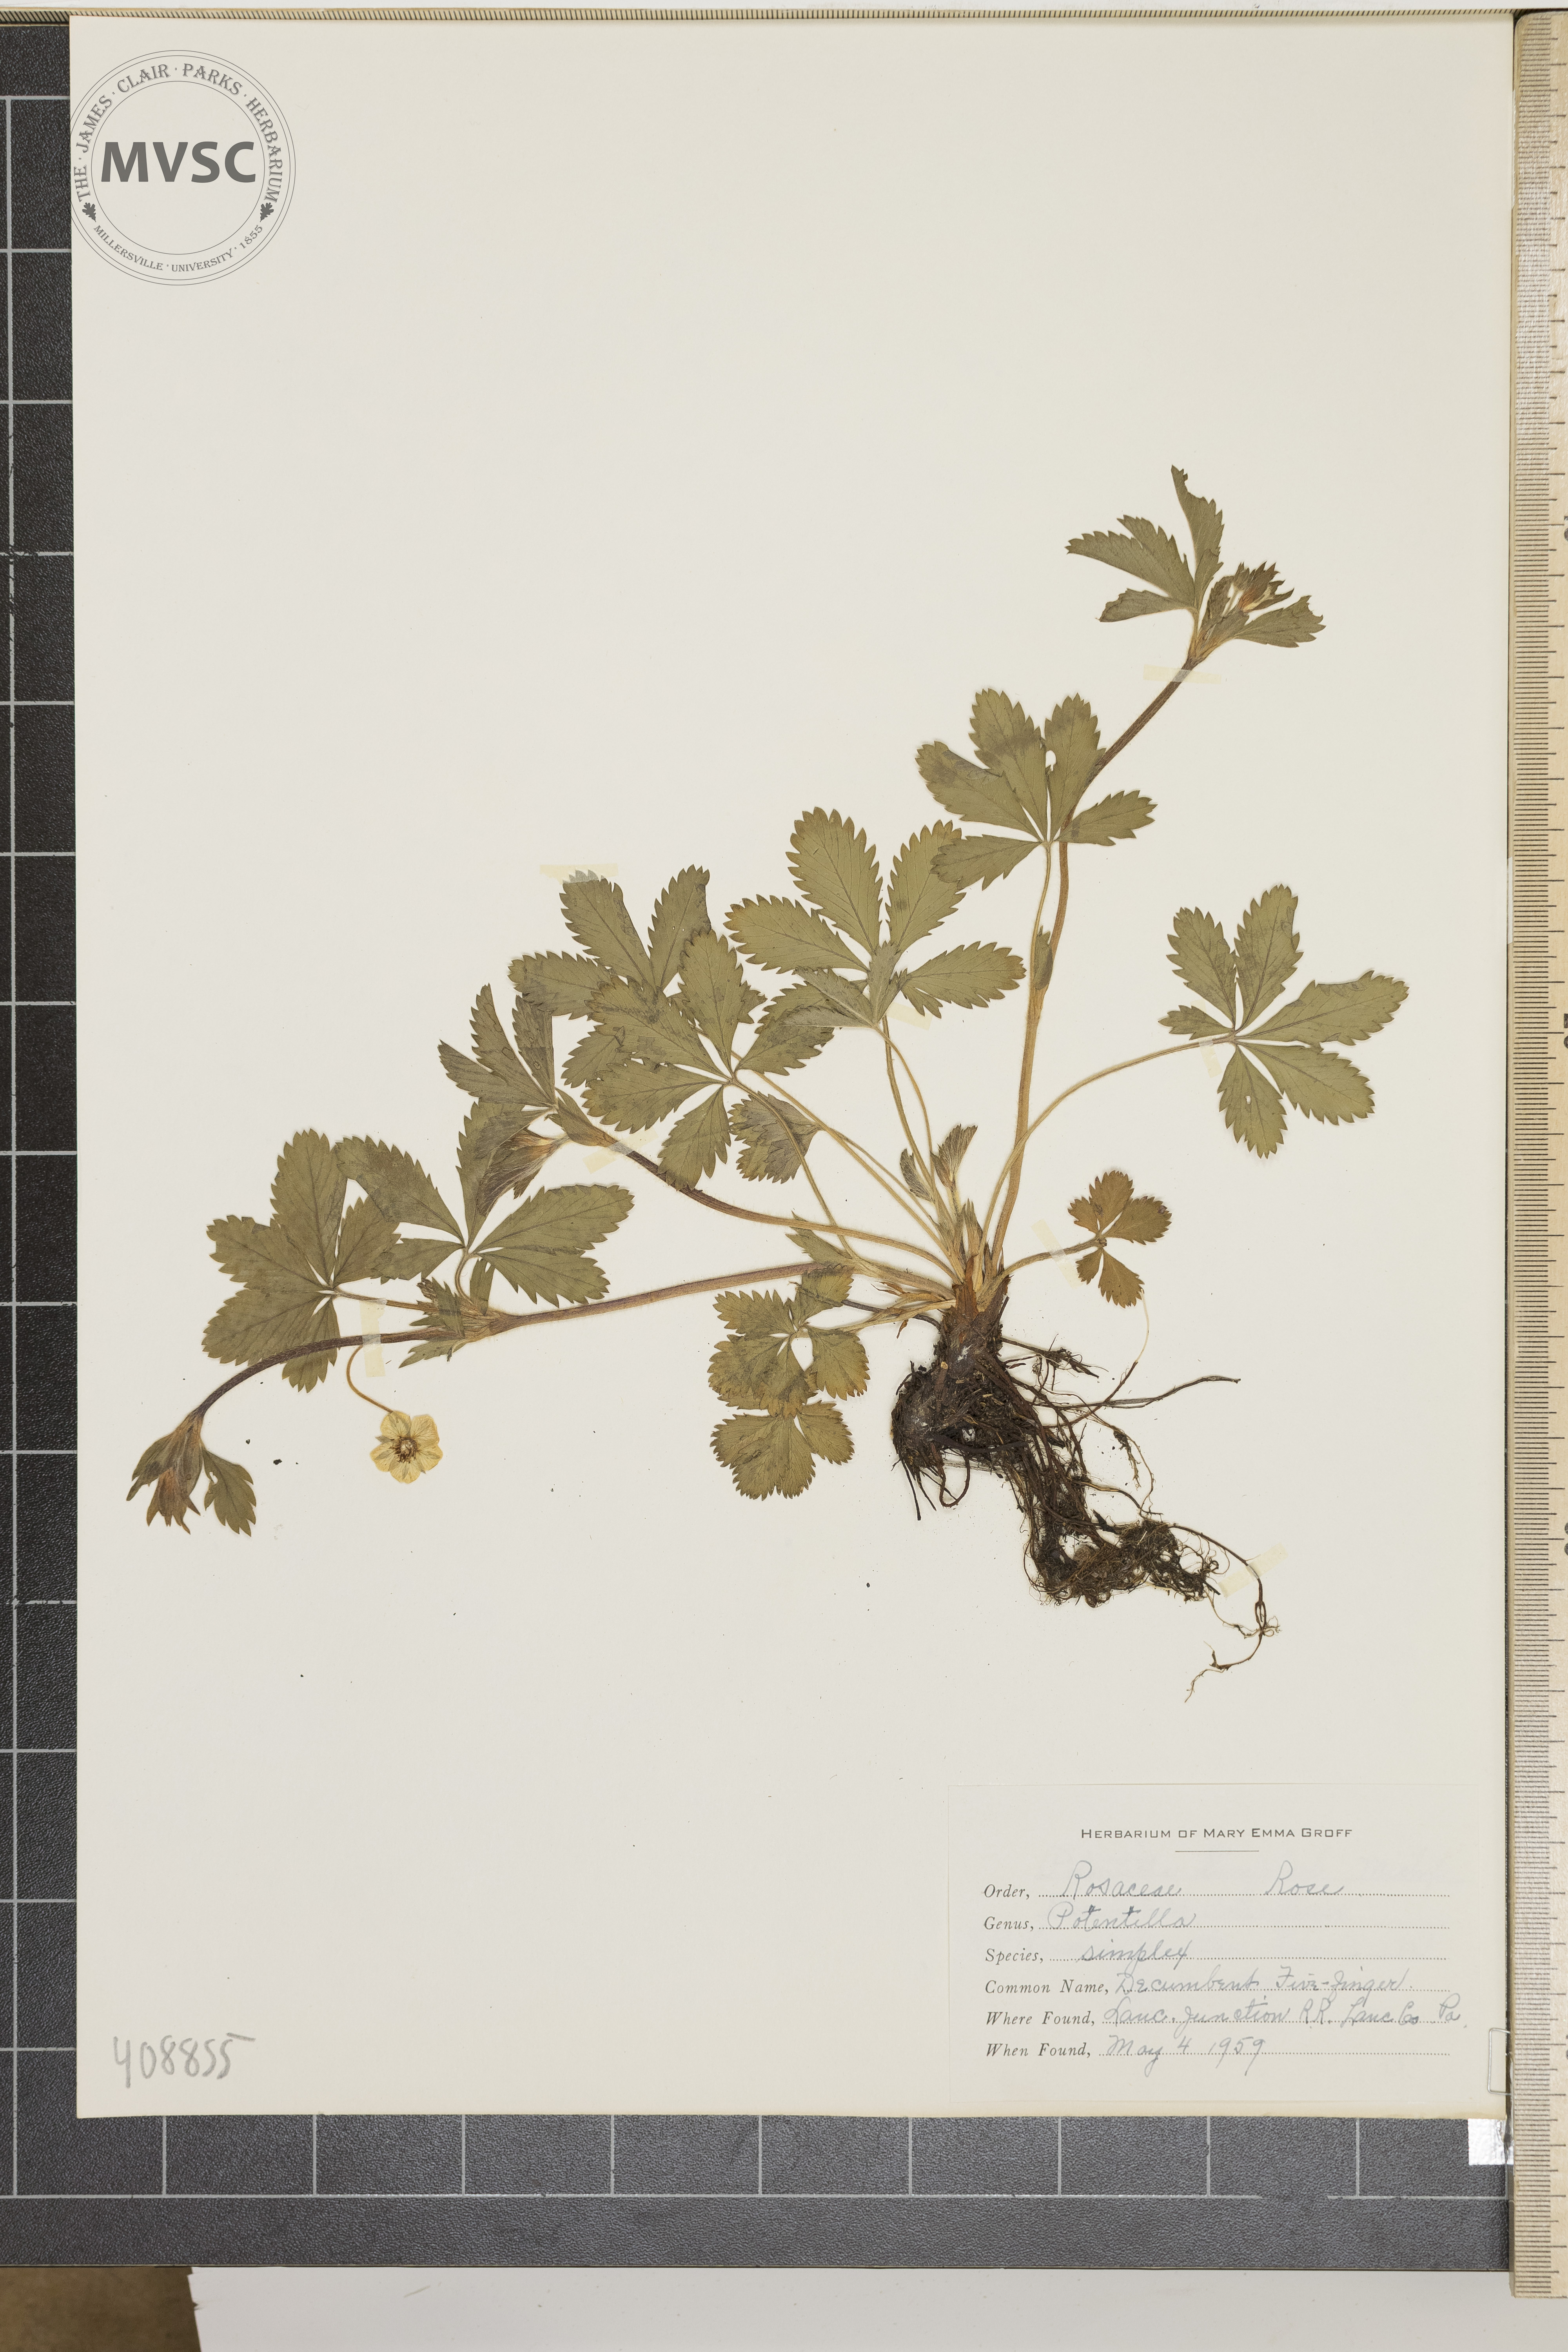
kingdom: Plantae
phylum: Tracheophyta
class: Magnoliopsida
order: Rosales
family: Rosaceae
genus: Potentilla
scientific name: Potentilla simplex
